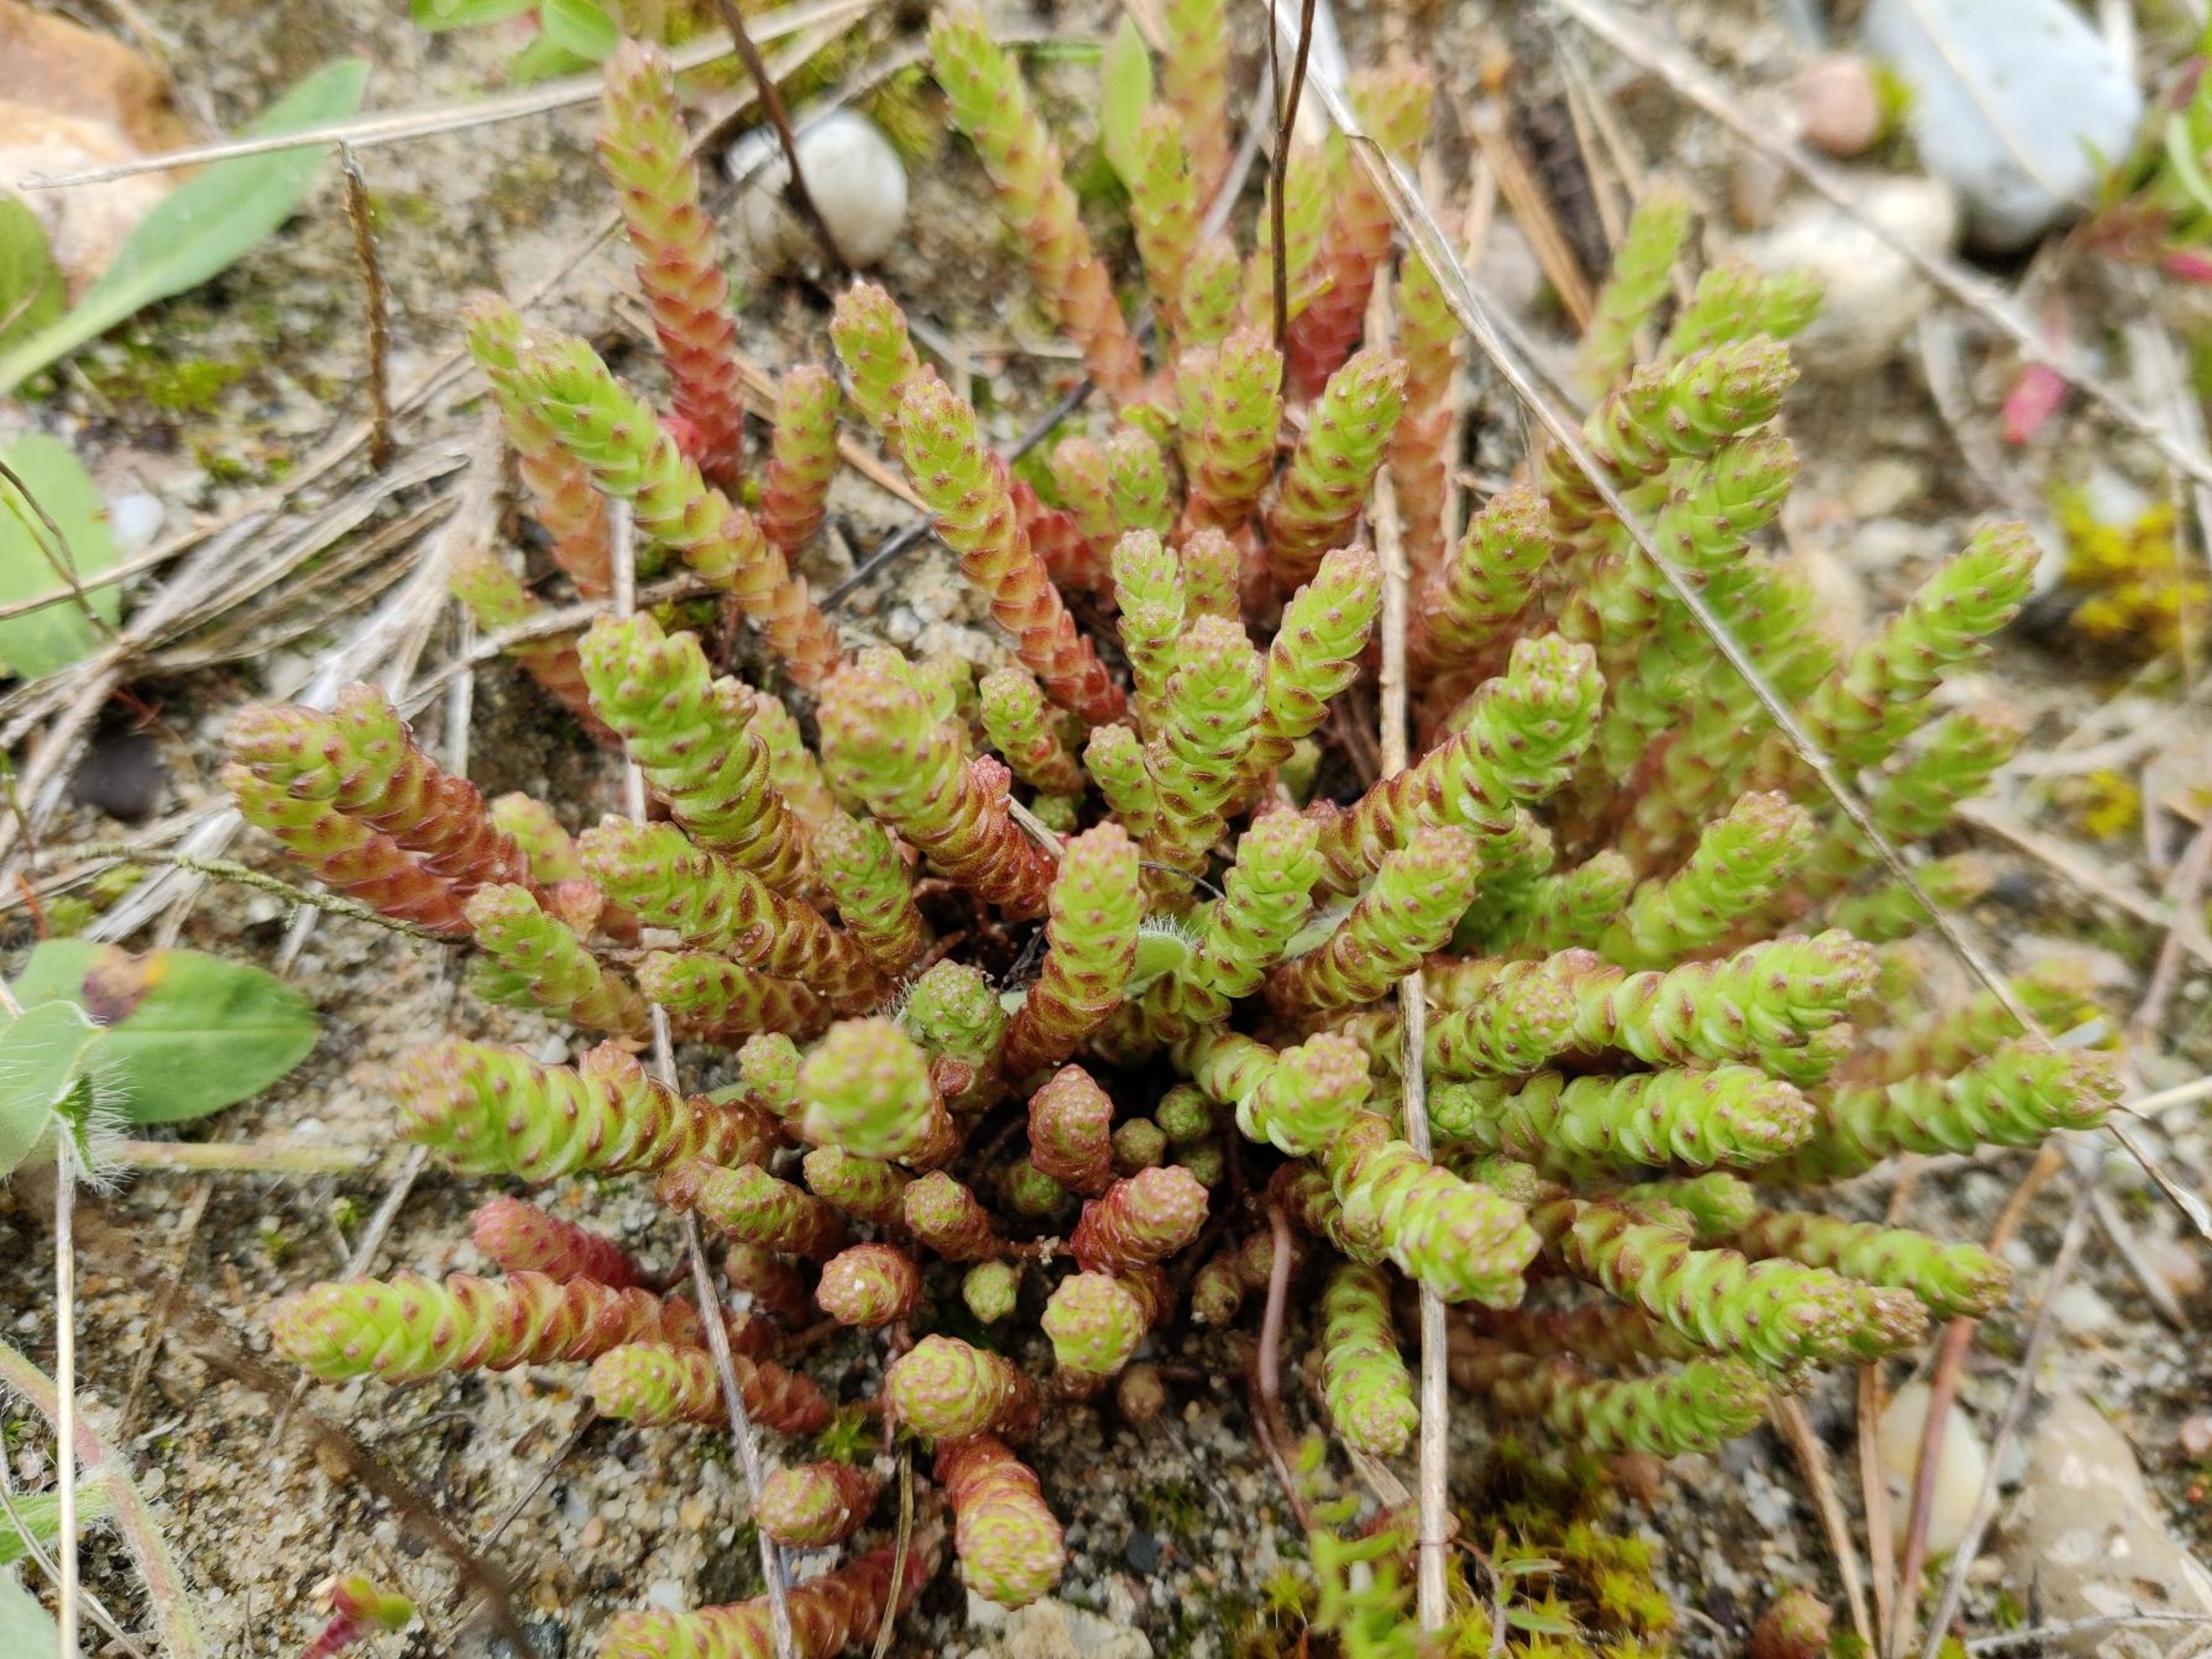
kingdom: Plantae
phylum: Tracheophyta
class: Magnoliopsida
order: Saxifragales
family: Crassulaceae
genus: Sedum
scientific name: Sedum acre
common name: Bidende stenurt
